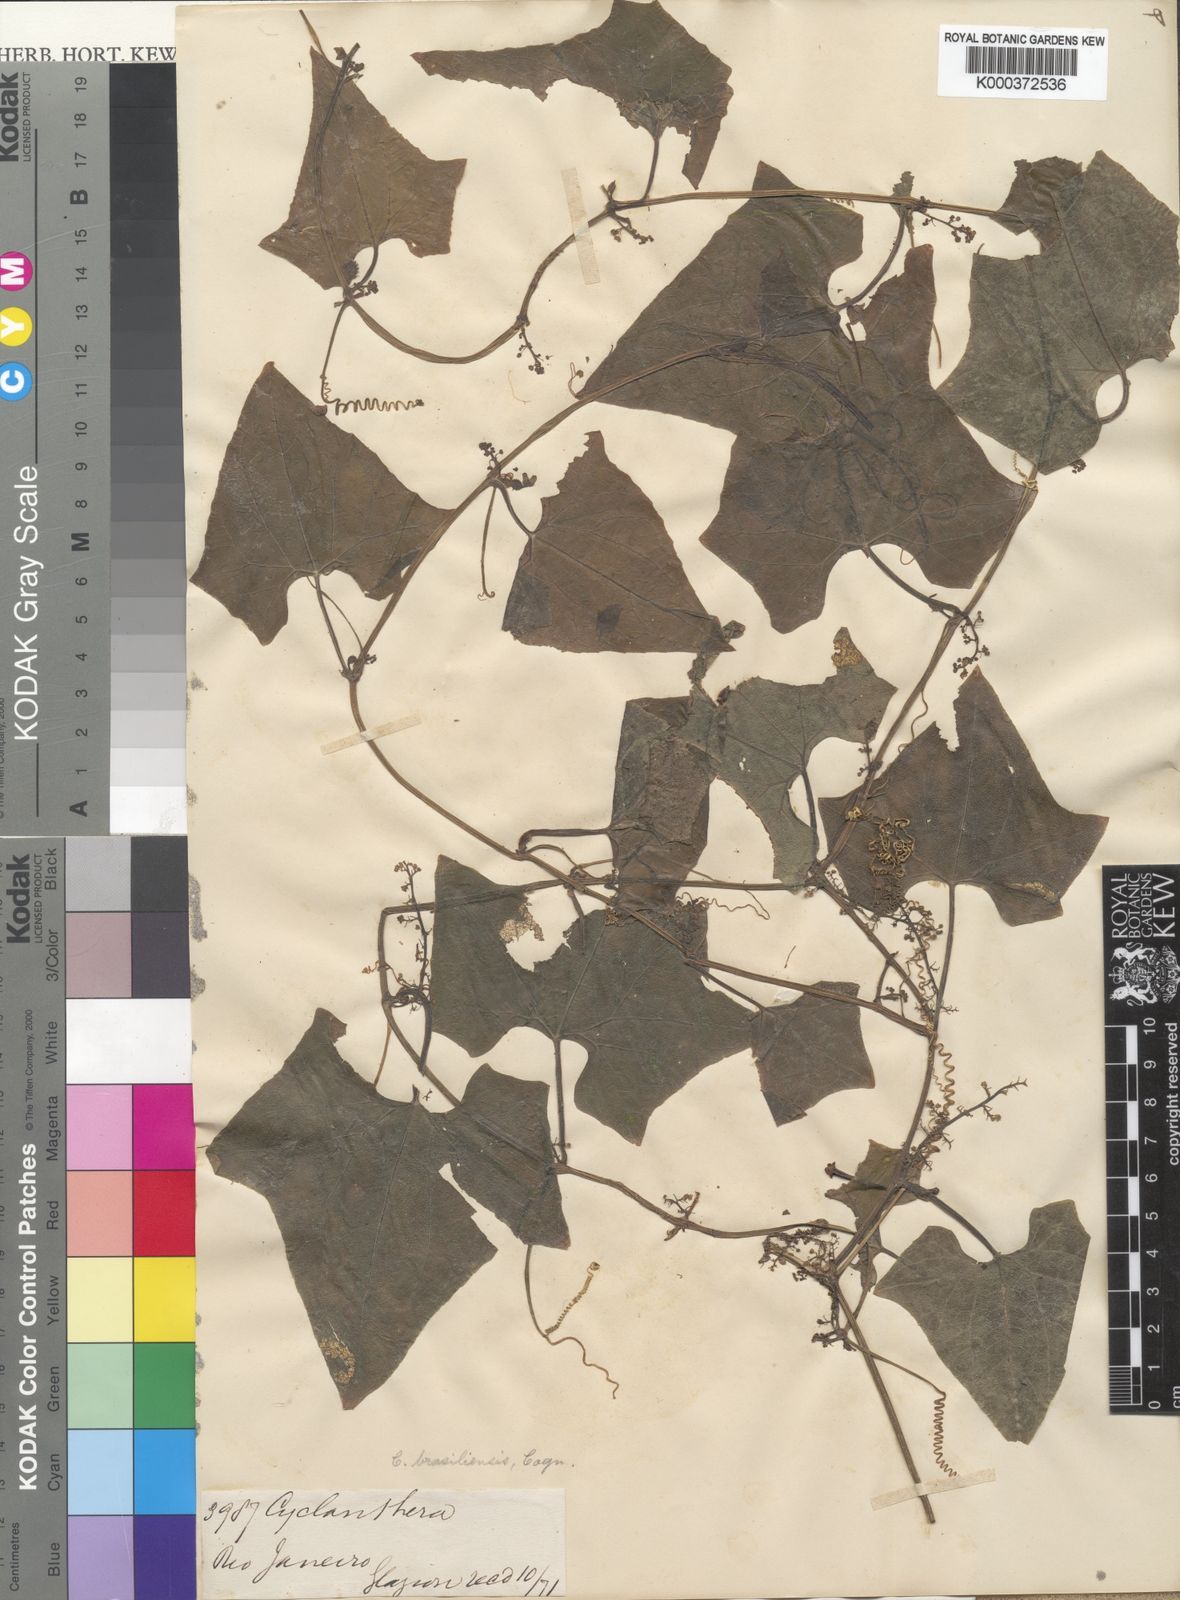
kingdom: Plantae
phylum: Tracheophyta
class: Magnoliopsida
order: Cucurbitales
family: Cucurbitaceae
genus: Cyclanthera
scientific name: Cyclanthera quinquelobata
